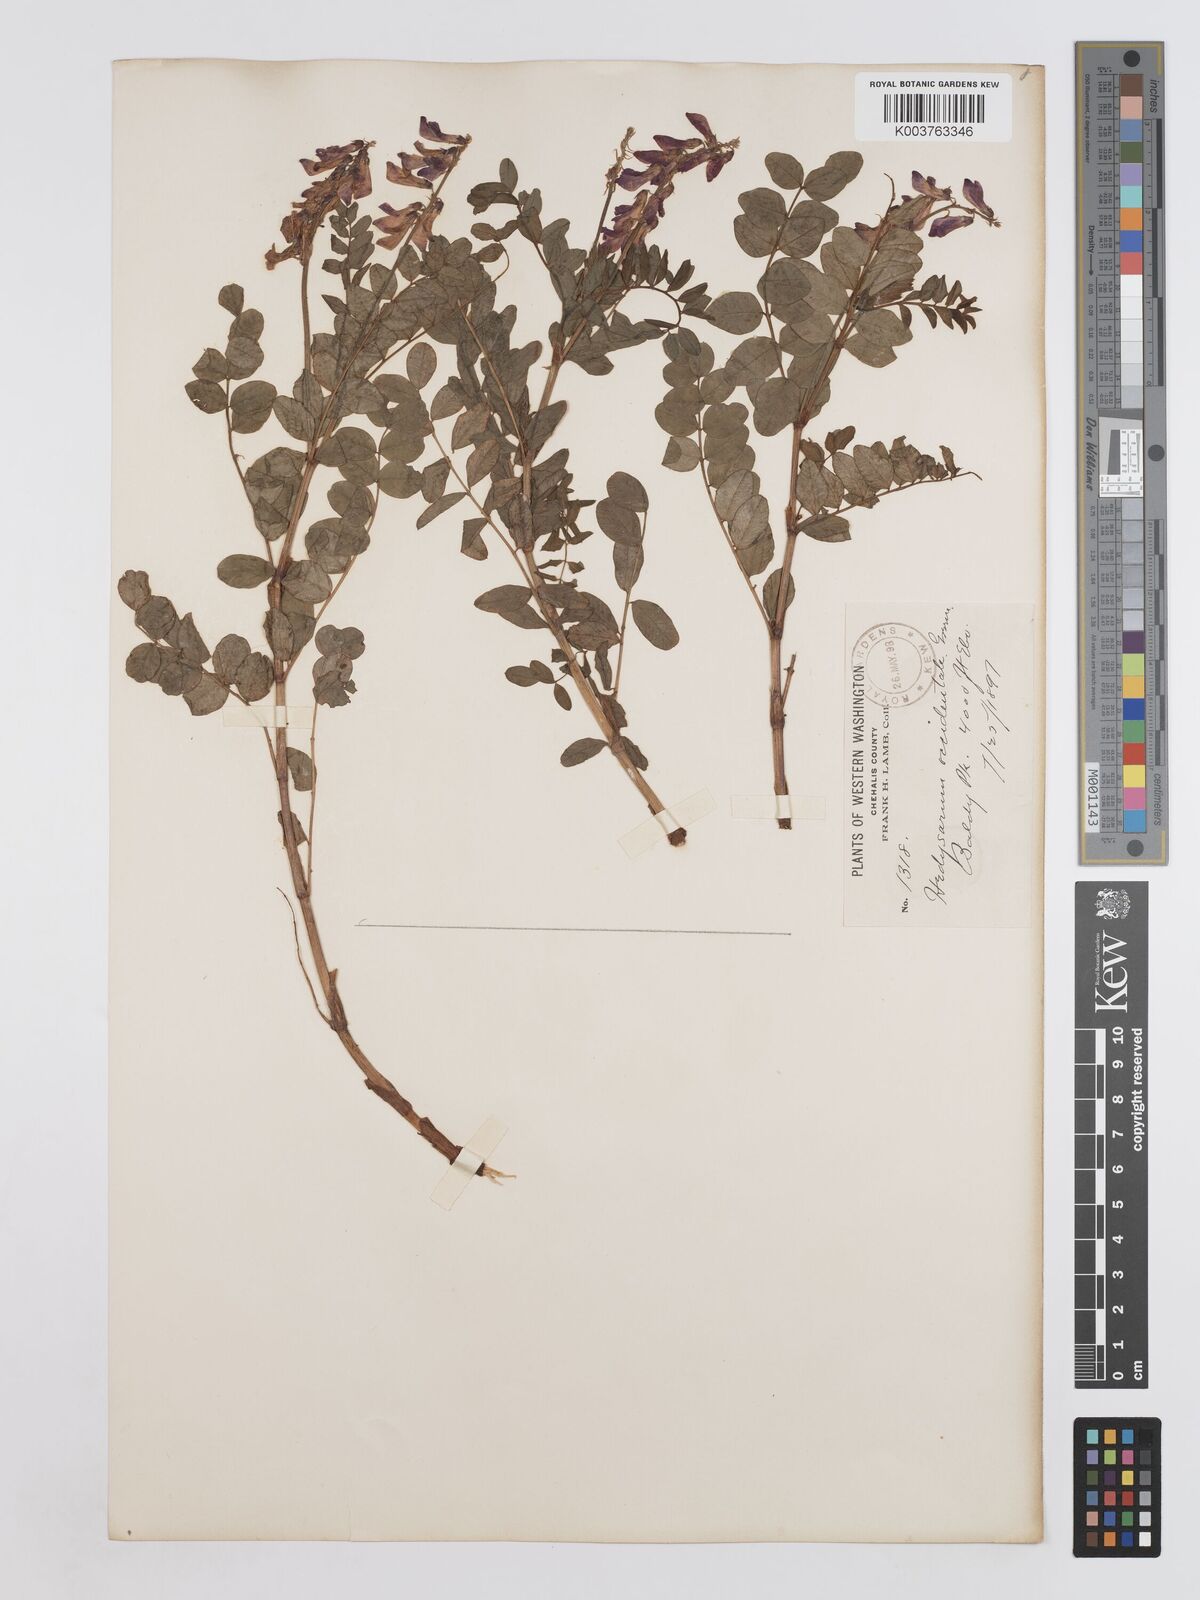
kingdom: Plantae
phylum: Tracheophyta
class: Magnoliopsida
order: Fabales
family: Fabaceae
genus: Hedysarum
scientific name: Hedysarum occidentale
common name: Western hedysarum
